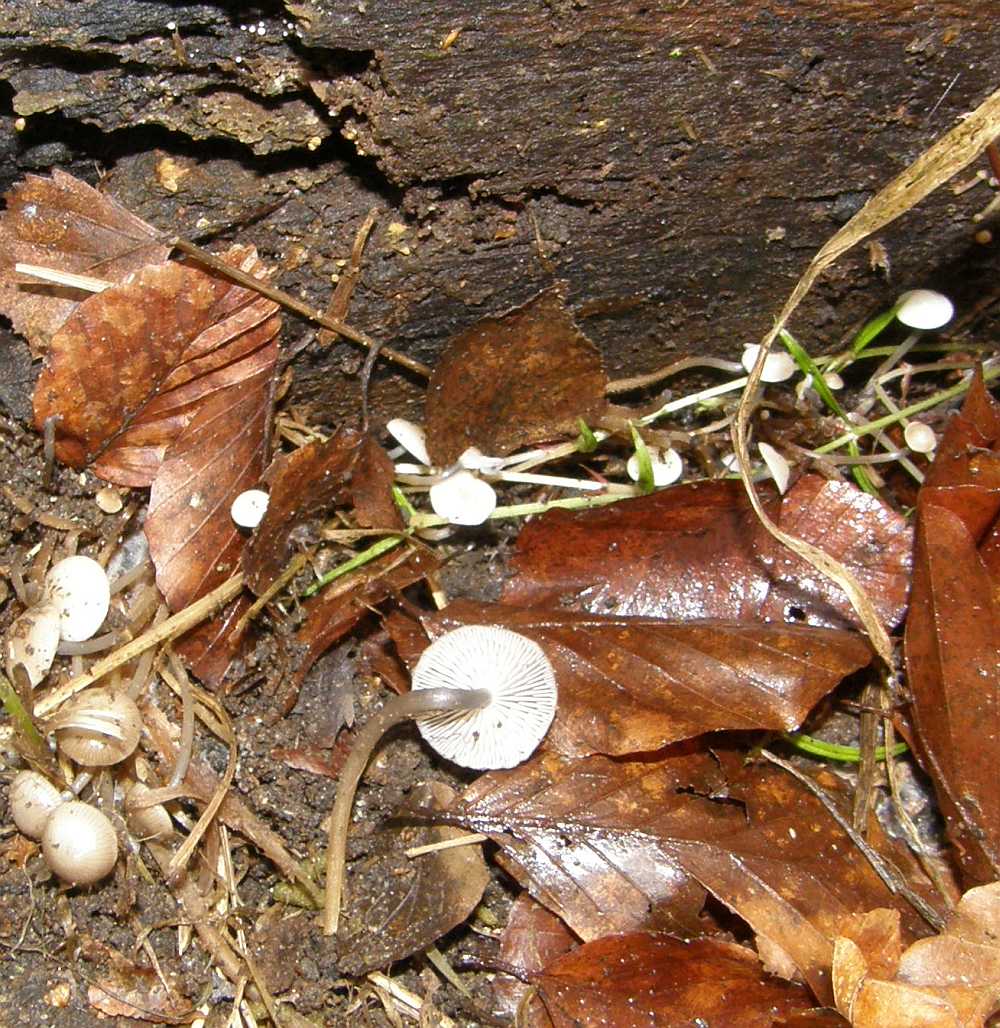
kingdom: Fungi
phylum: Basidiomycota
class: Agaricomycetes
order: Agaricales
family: Mycenaceae
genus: Mycena
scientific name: Mycena tintinnabulum
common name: vinter-huesvamp
